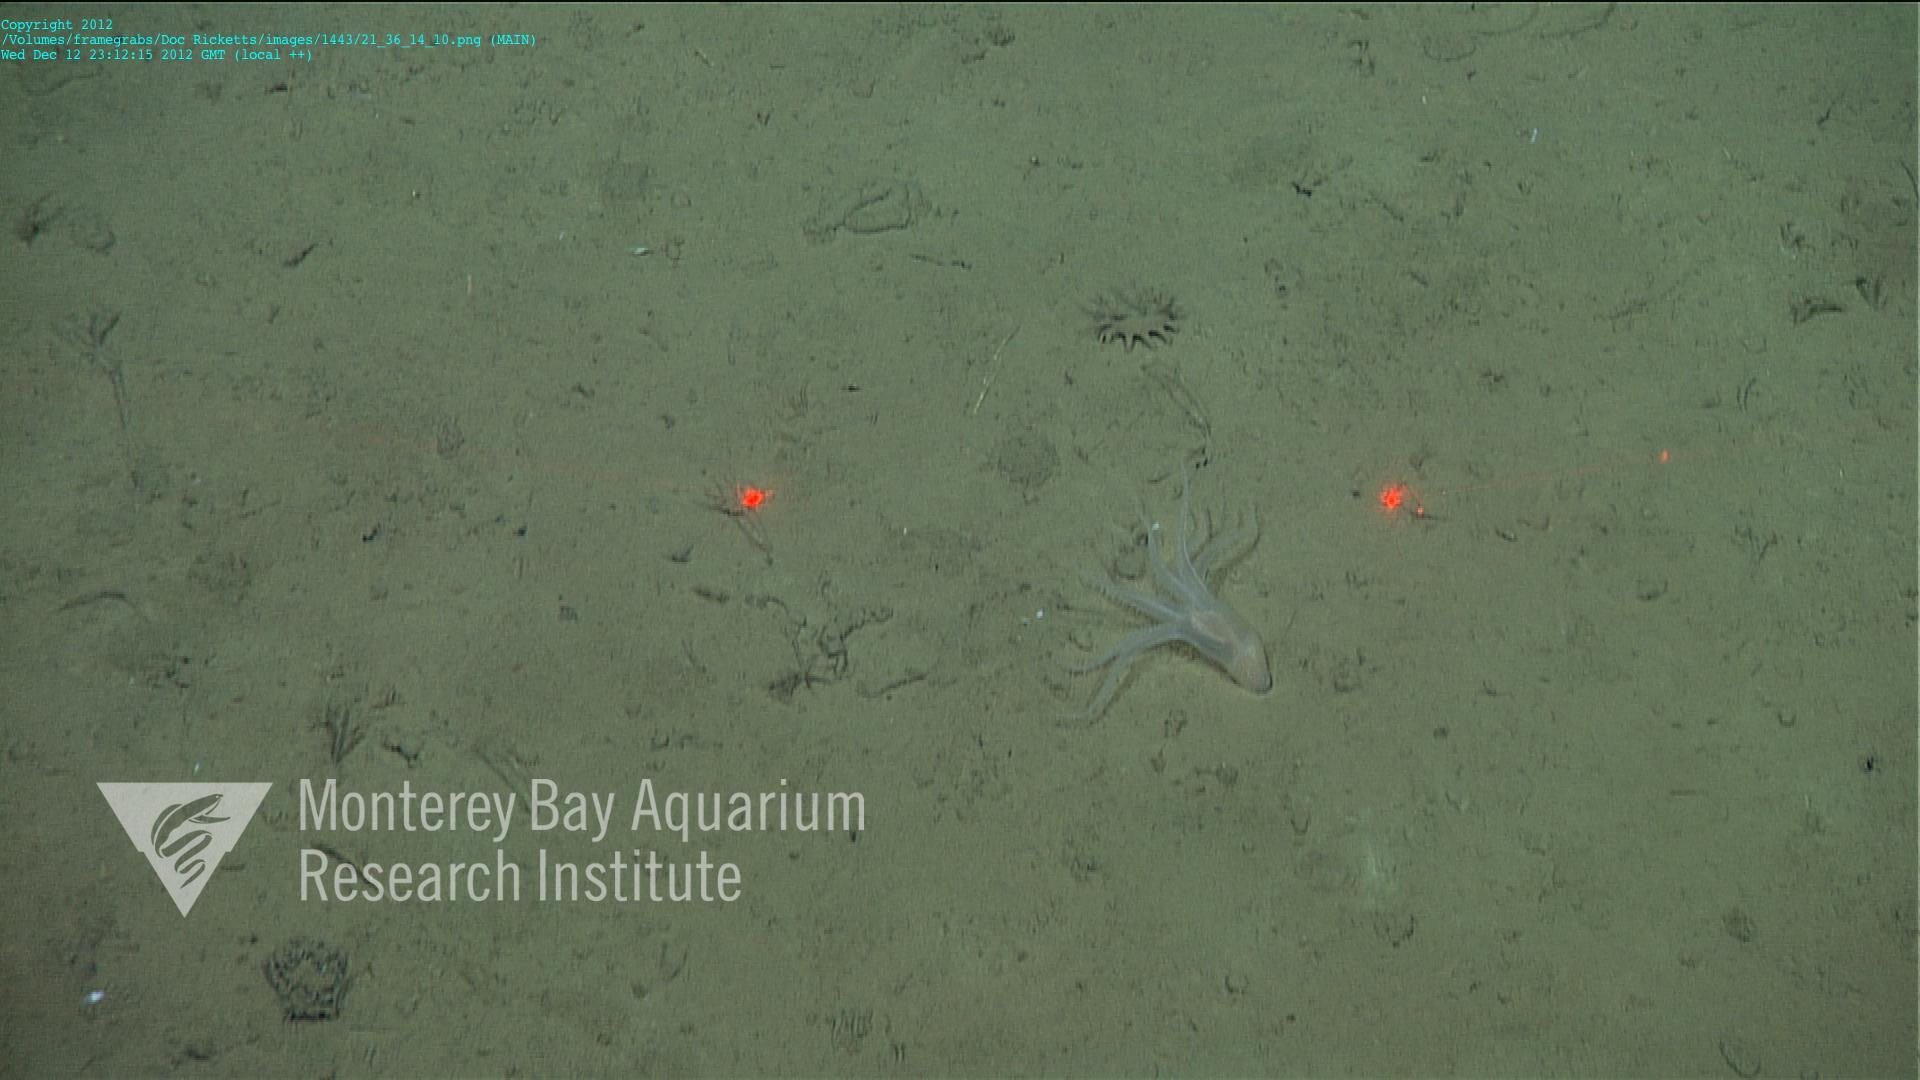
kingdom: Animalia
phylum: Cnidaria
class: Anthozoa
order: Scleralcyonacea
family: Coralliidae
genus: Bathyalcyon
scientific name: Bathyalcyon robustum
